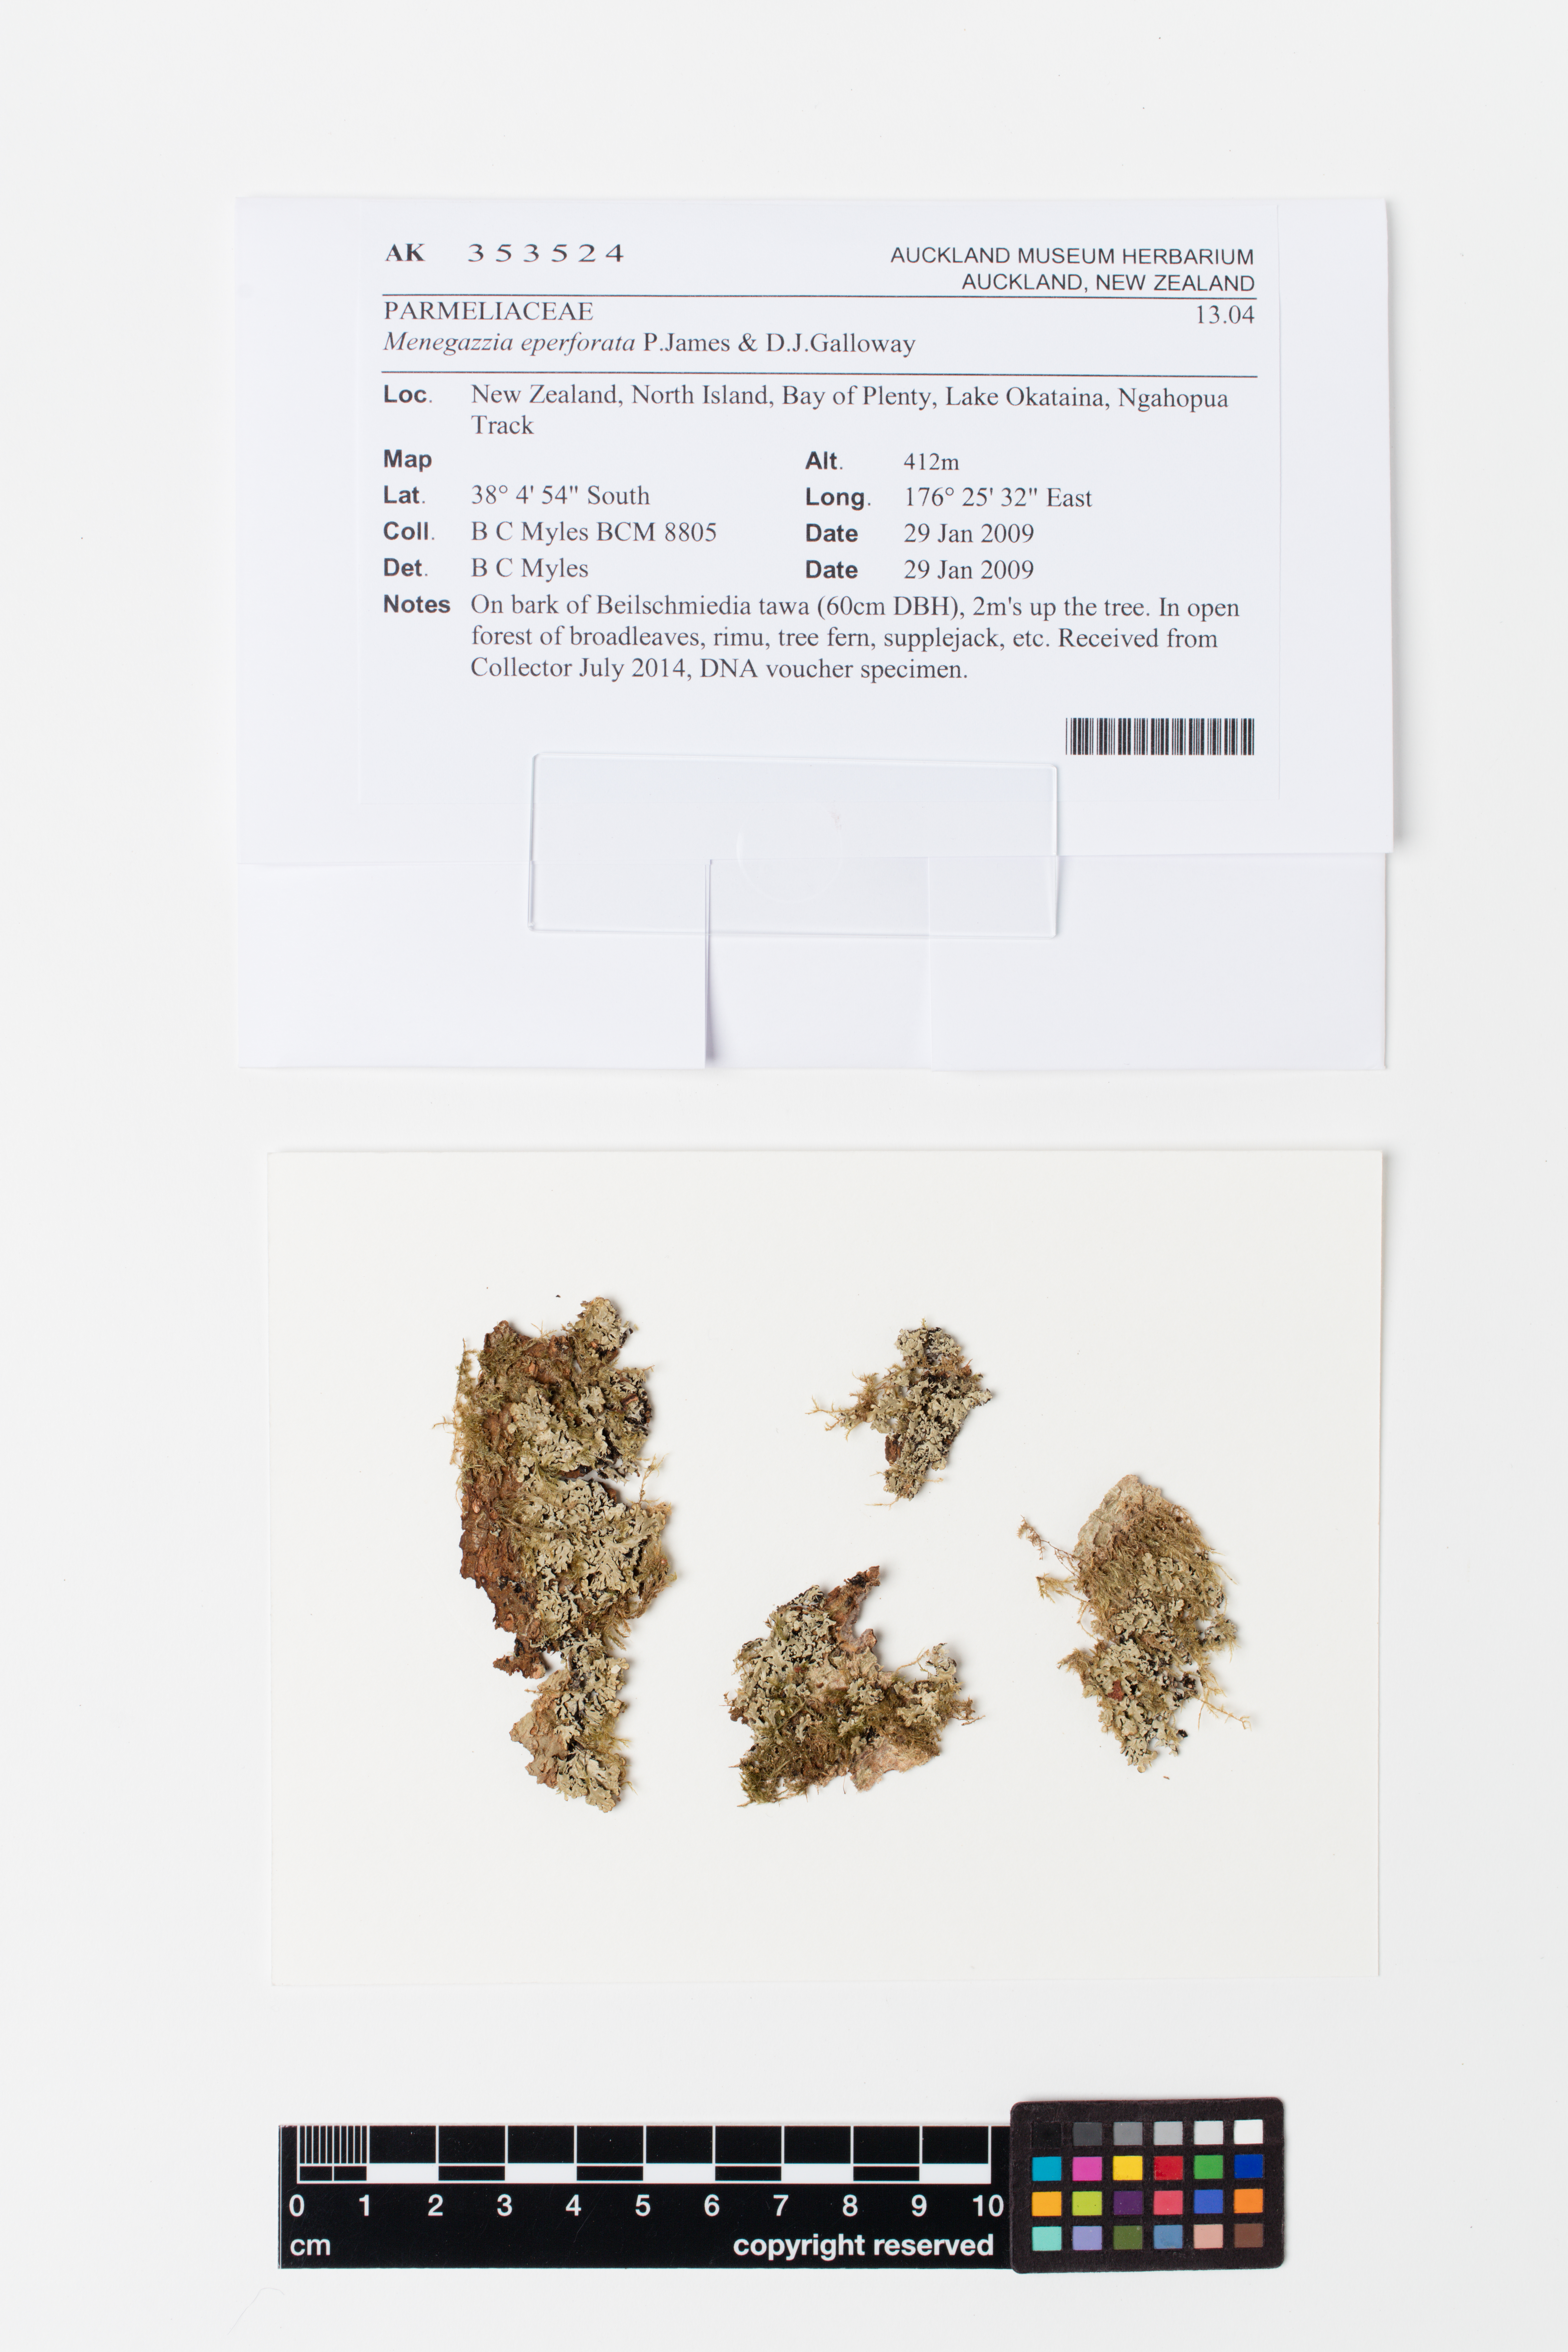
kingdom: Fungi
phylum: Ascomycota
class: Lecanoromycetes
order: Lecanorales
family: Parmeliaceae
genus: Menegazzia
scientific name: Menegazzia eperforata
